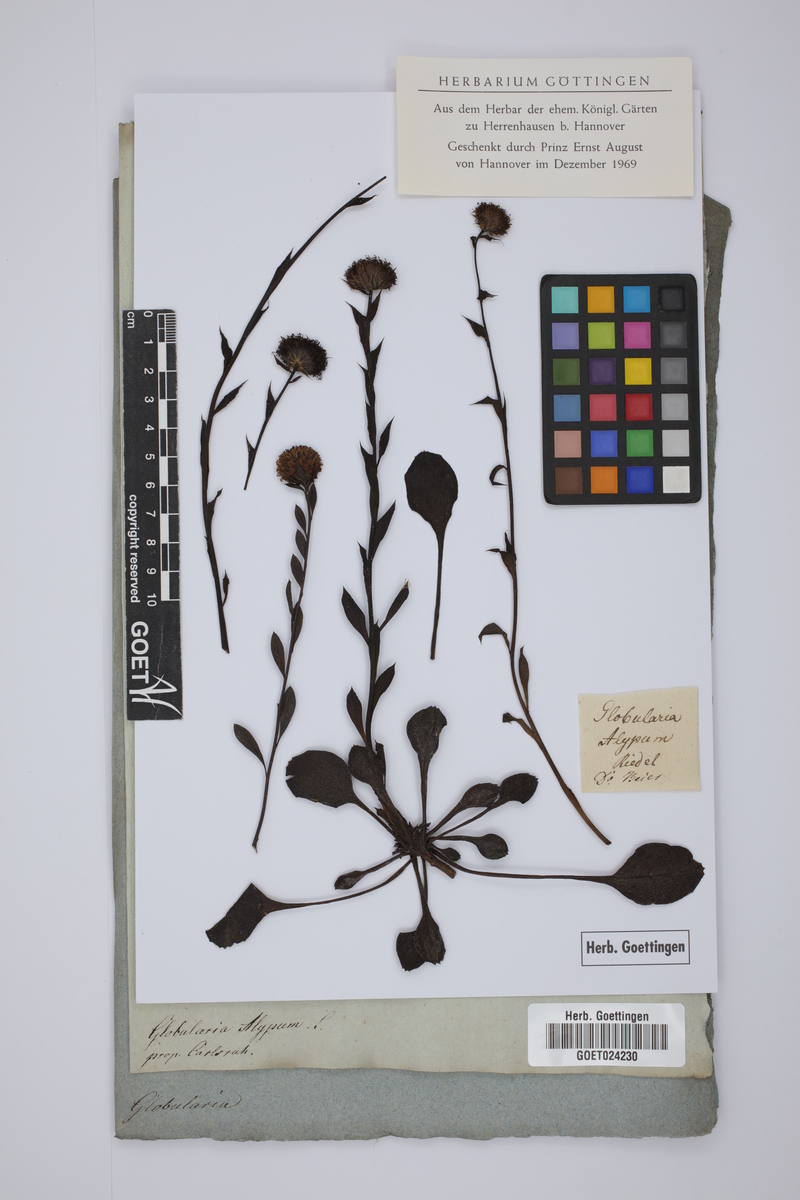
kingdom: Plantae
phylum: Tracheophyta
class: Magnoliopsida
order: Lamiales
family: Plantaginaceae
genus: Globularia
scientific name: Globularia alypum
